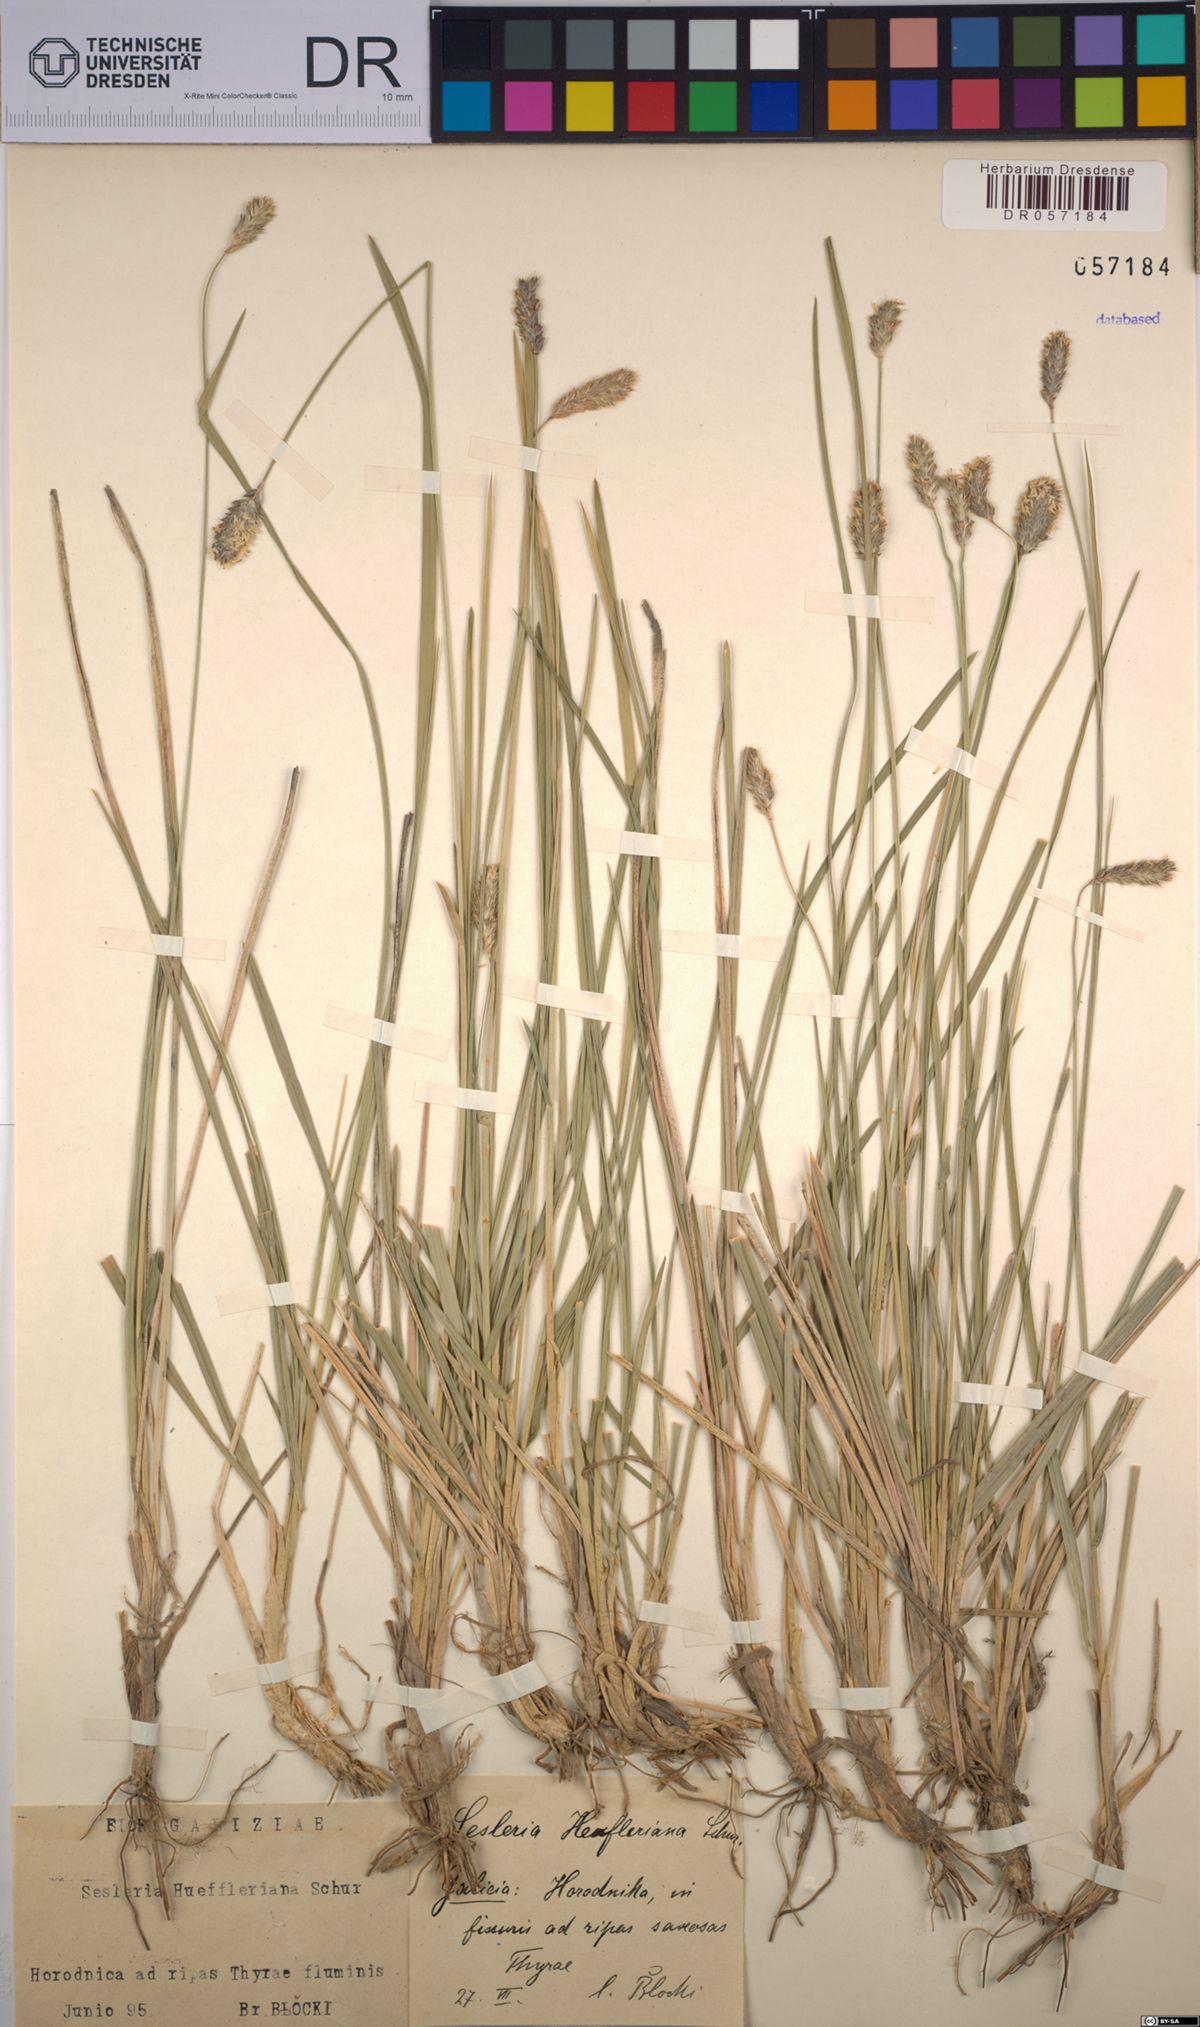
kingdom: Plantae
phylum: Tracheophyta
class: Liliopsida
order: Poales
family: Poaceae
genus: Sesleria
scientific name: Sesleria heufleriana
